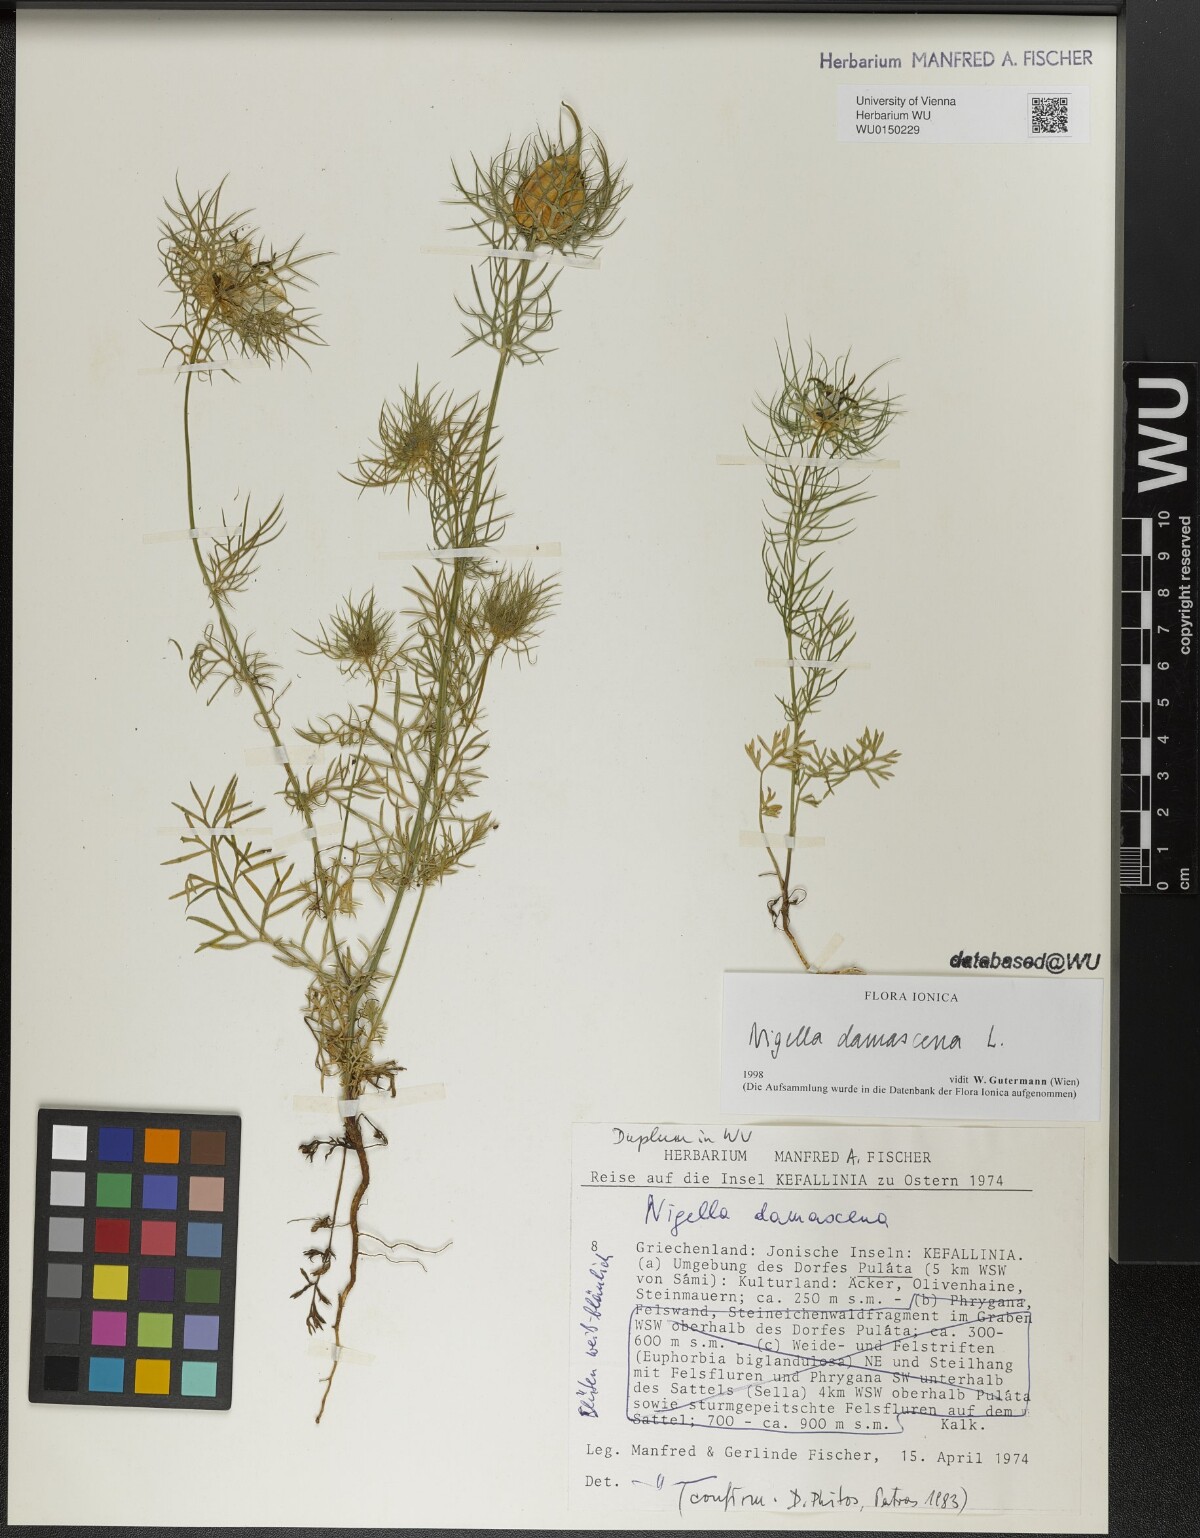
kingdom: Plantae
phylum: Tracheophyta
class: Magnoliopsida
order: Ranunculales
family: Ranunculaceae
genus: Nigella
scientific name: Nigella damascena
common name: Love-in-a-mist
